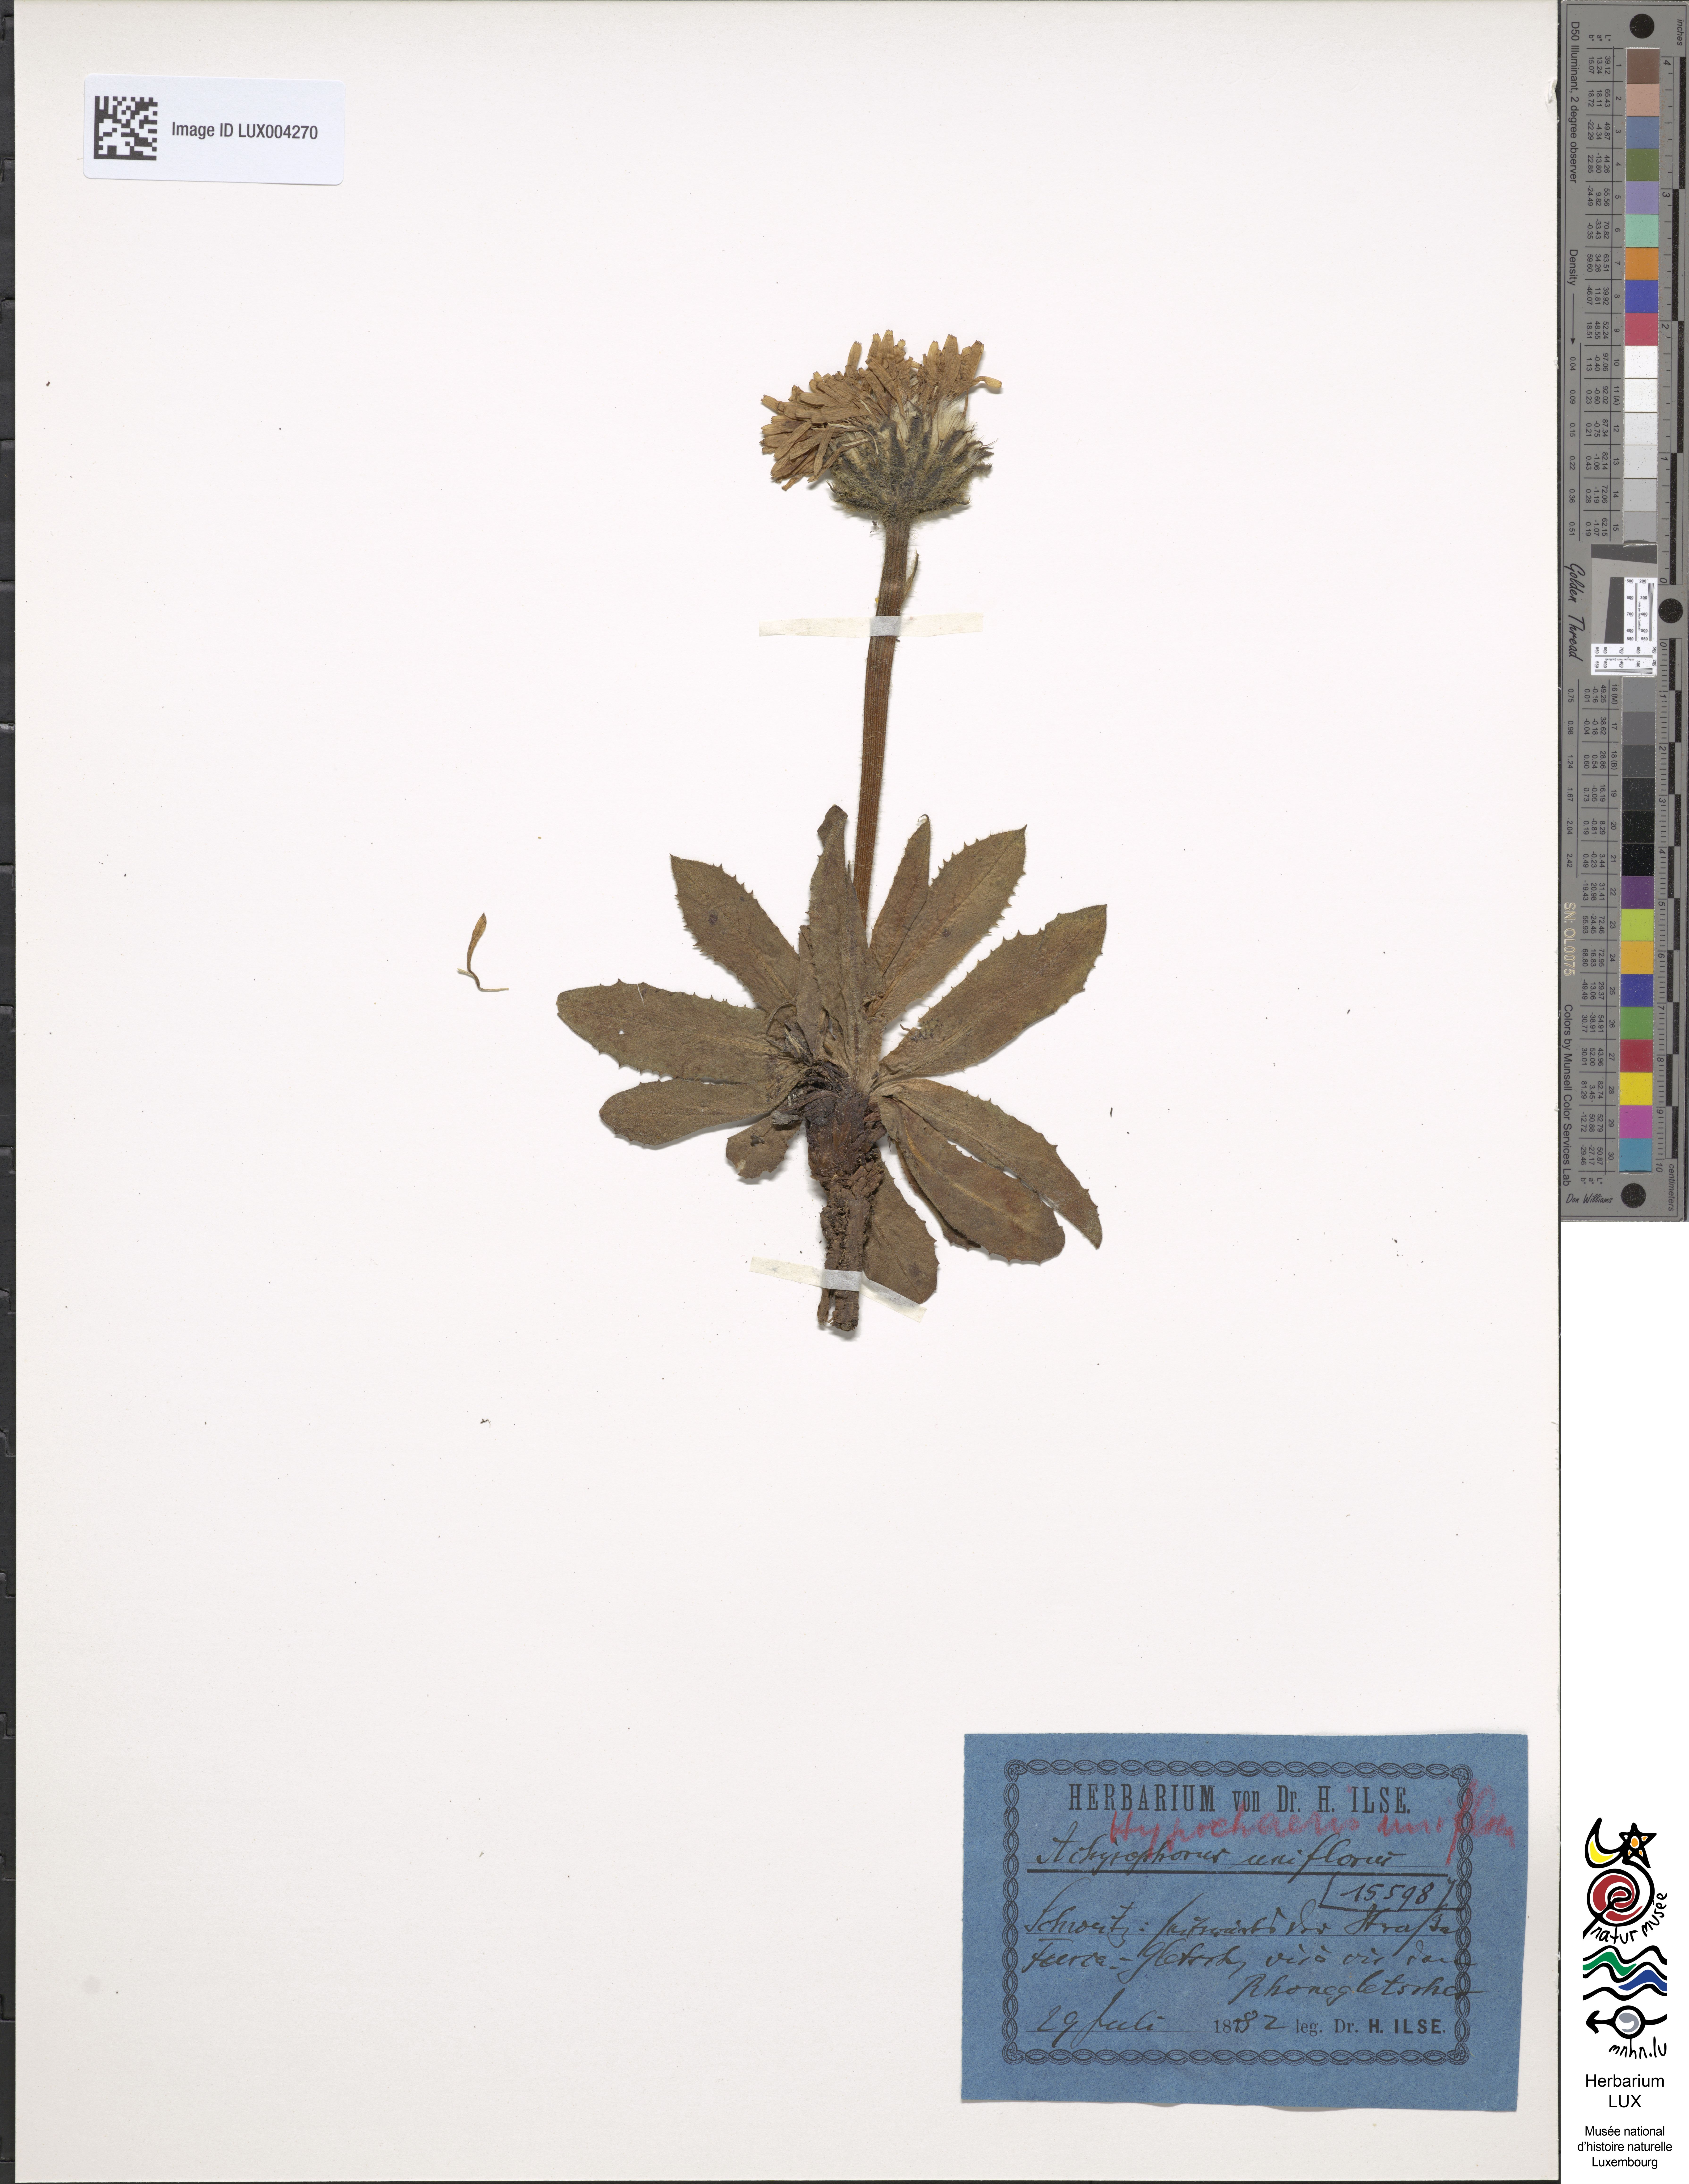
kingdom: Plantae
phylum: Tracheophyta
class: Magnoliopsida
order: Asterales
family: Asteraceae
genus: Hypochoeris
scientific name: Hypochoeris
